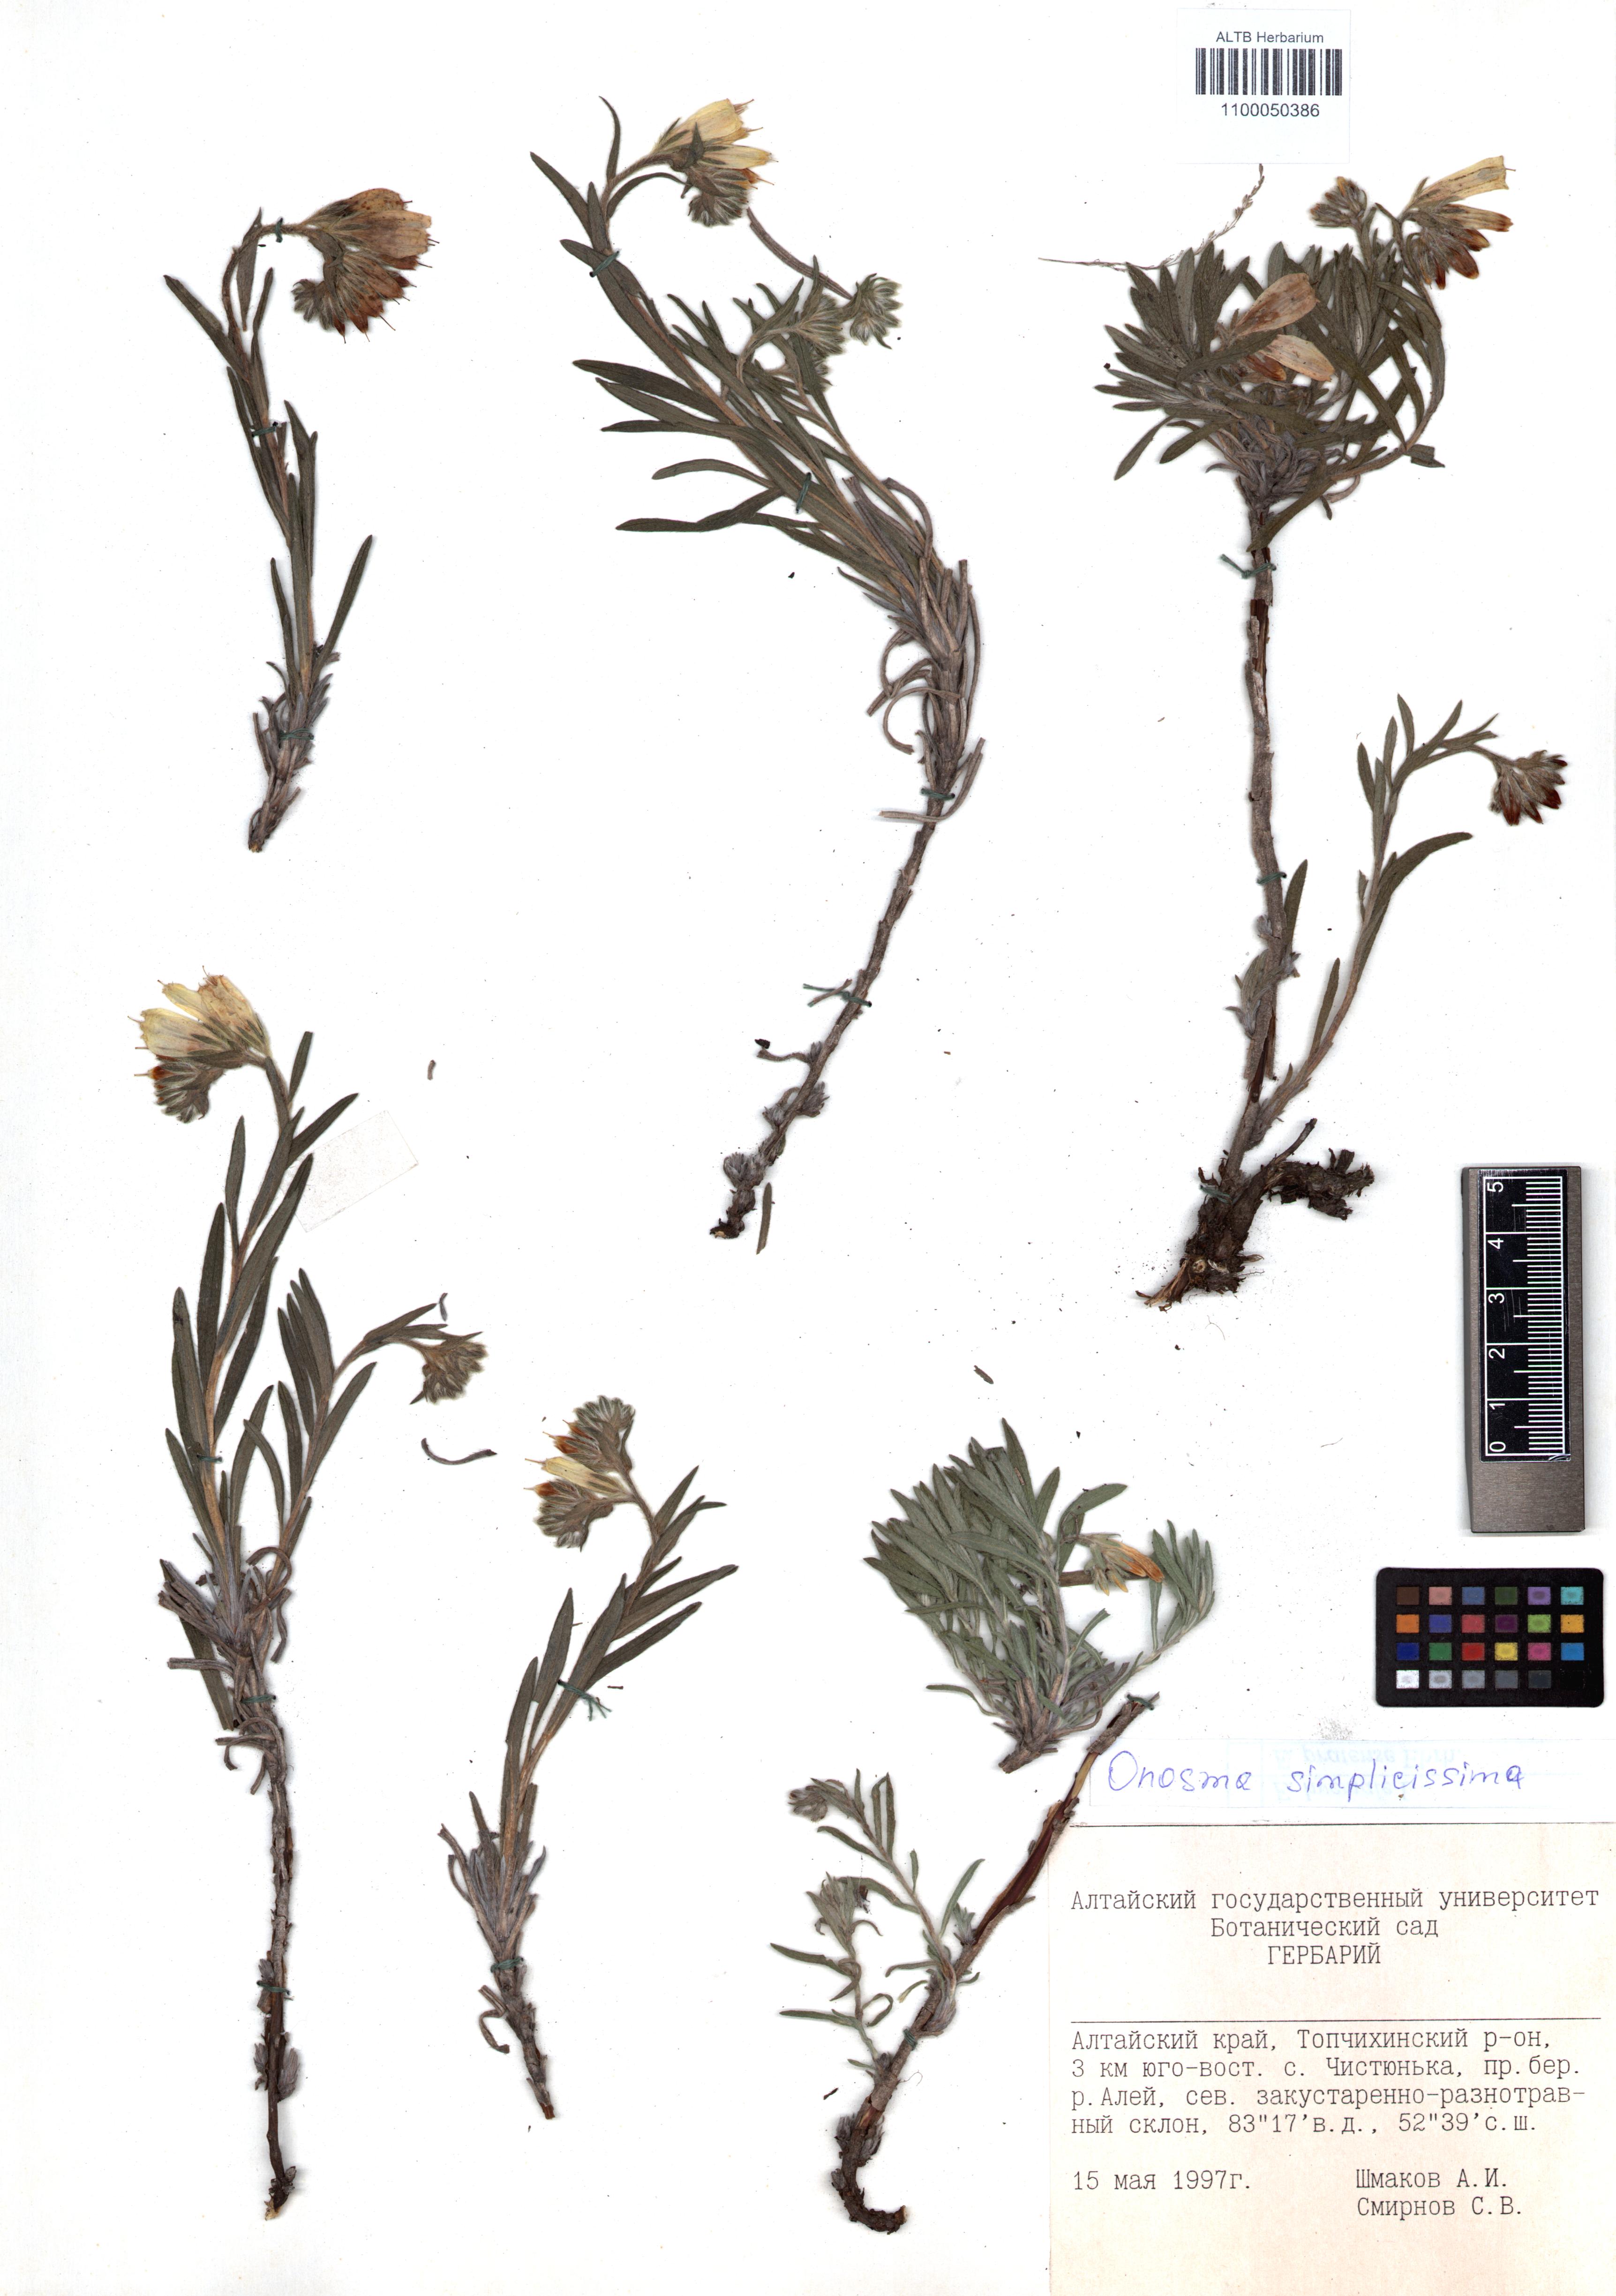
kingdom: Plantae
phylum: Tracheophyta
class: Magnoliopsida
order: Boraginales
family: Boraginaceae
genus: Onosma
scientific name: Onosma simplicissima
